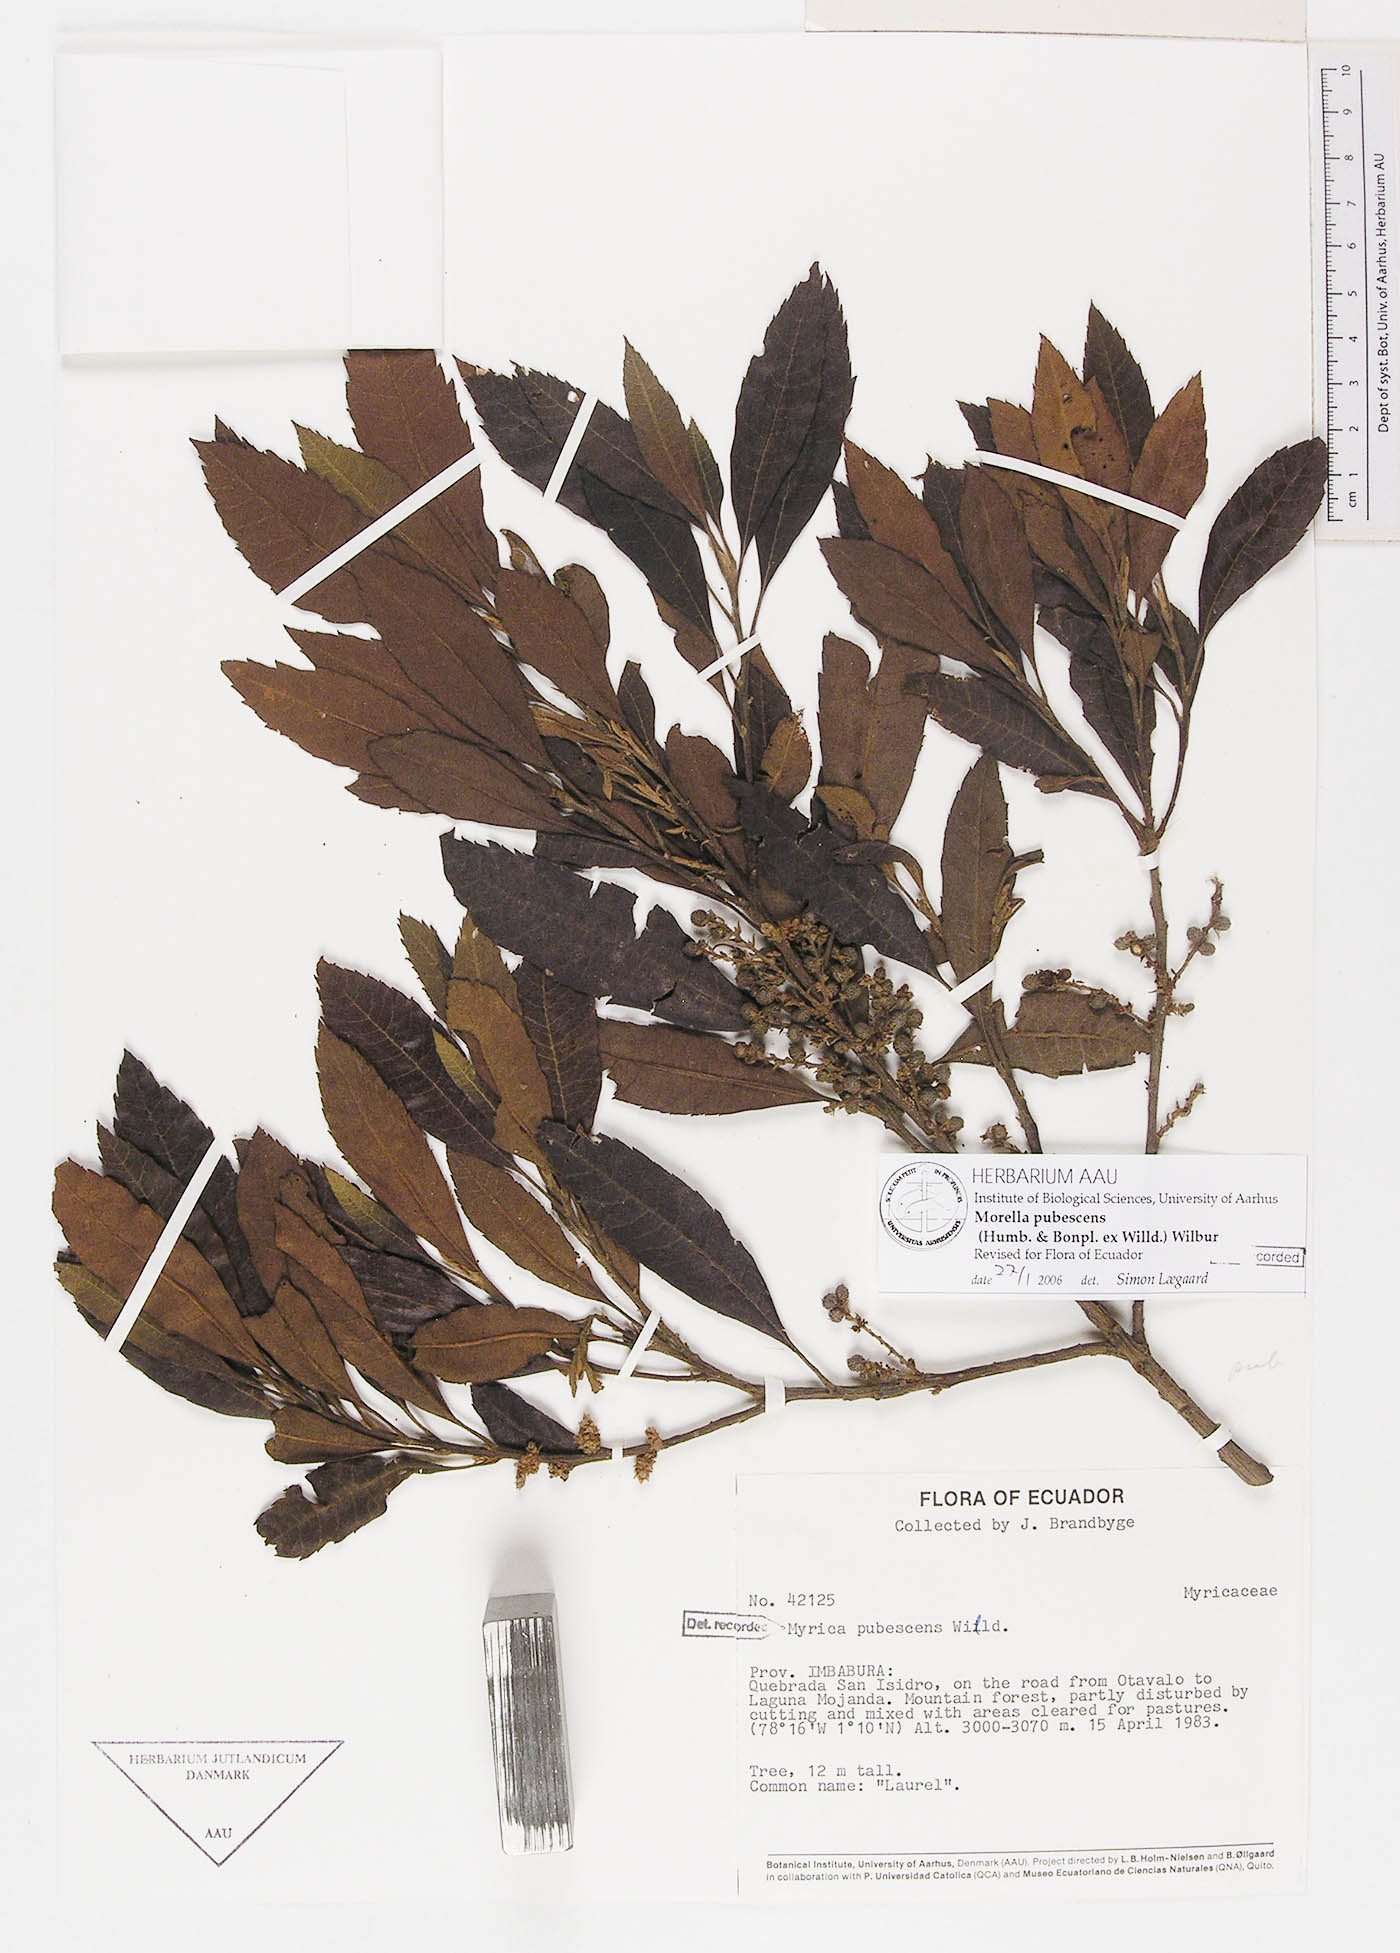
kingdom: Plantae
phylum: Tracheophyta
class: Magnoliopsida
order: Fagales
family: Myricaceae
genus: Morella
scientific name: Morella pubescens
